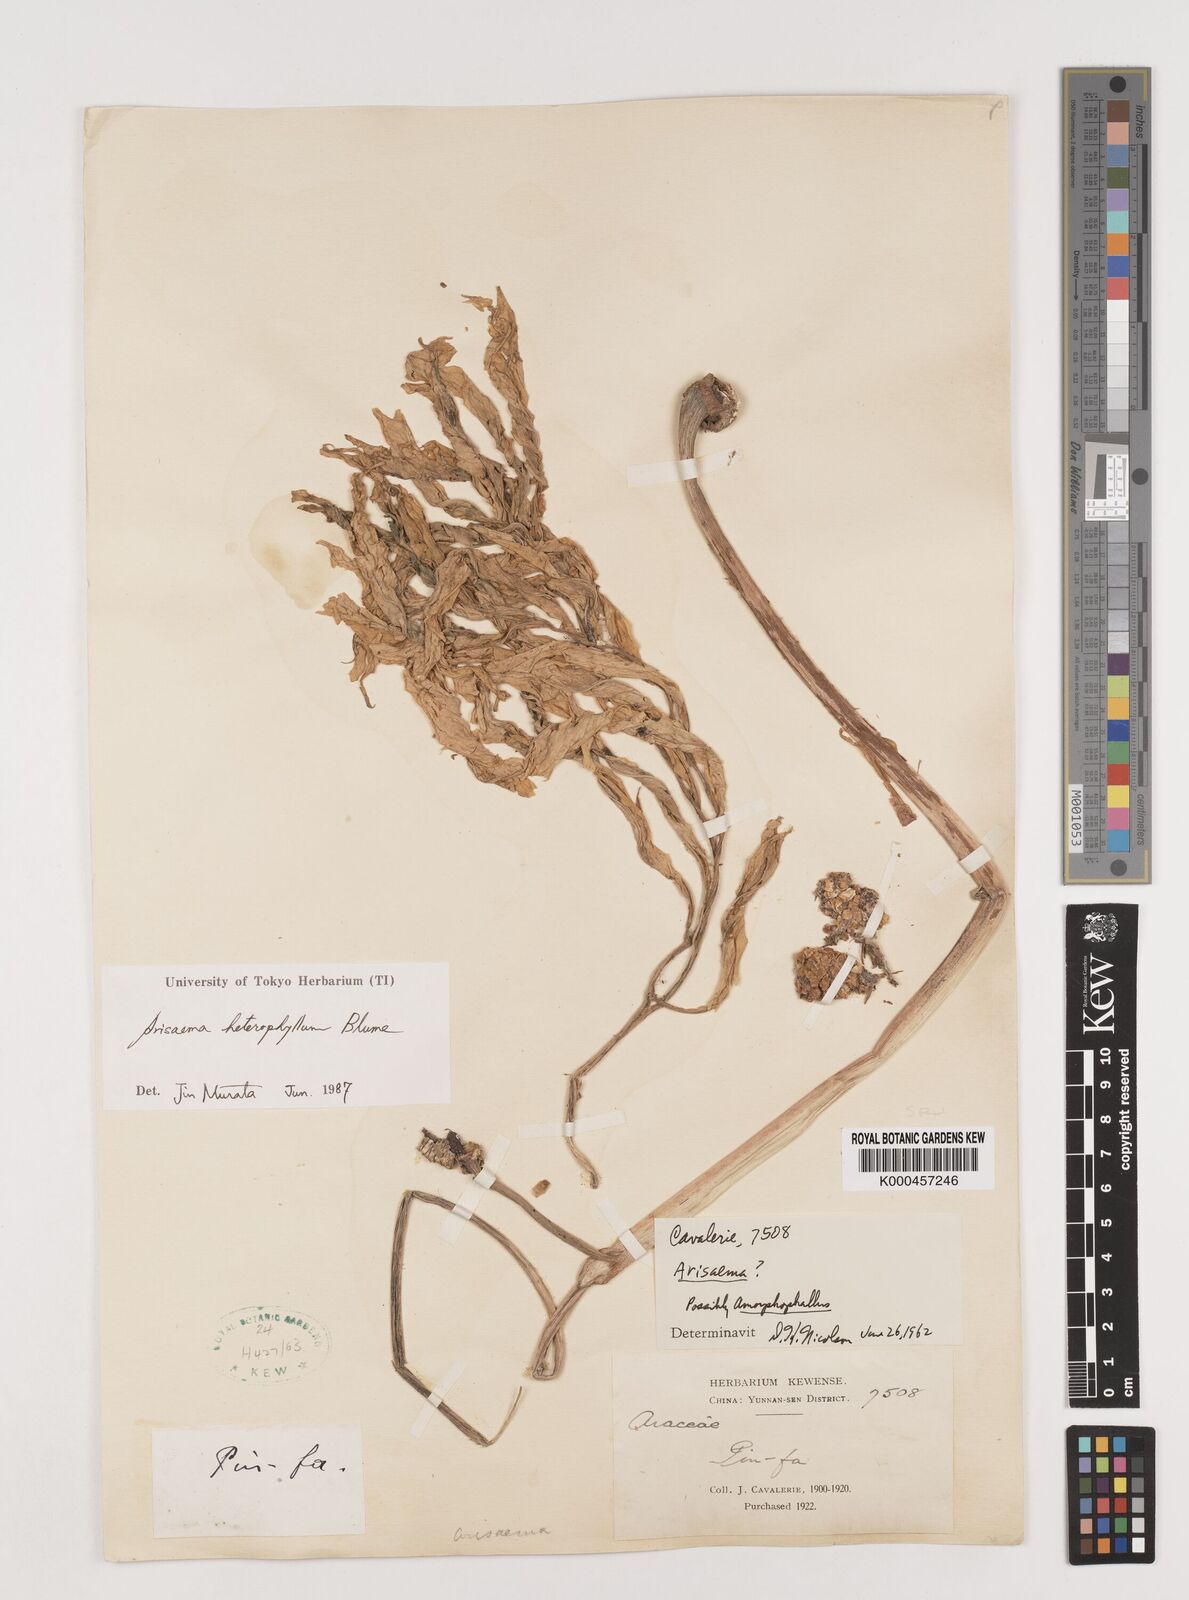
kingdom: Plantae
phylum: Tracheophyta
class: Liliopsida
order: Alismatales
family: Araceae
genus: Arisaema
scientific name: Arisaema heterophyllum
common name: Dancing crane cobra lily
